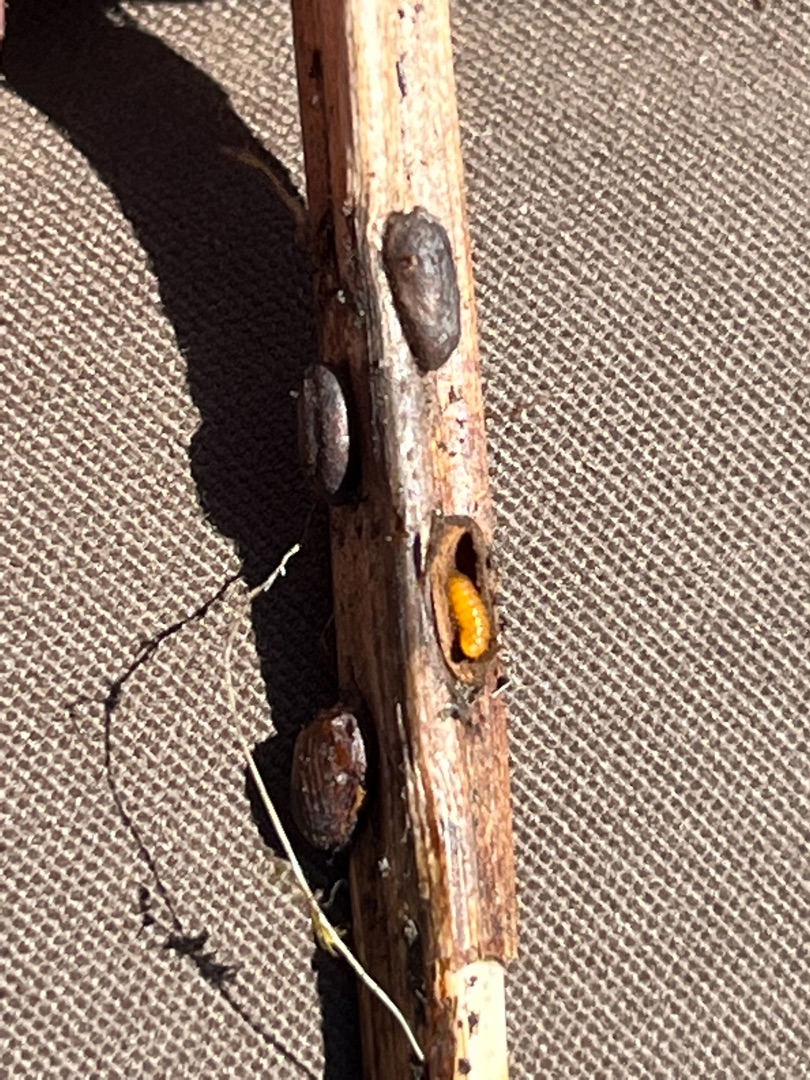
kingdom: Animalia
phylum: Arthropoda
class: Insecta
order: Diptera
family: Cecidomyiidae
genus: Planetella
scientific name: Planetella gallarum
